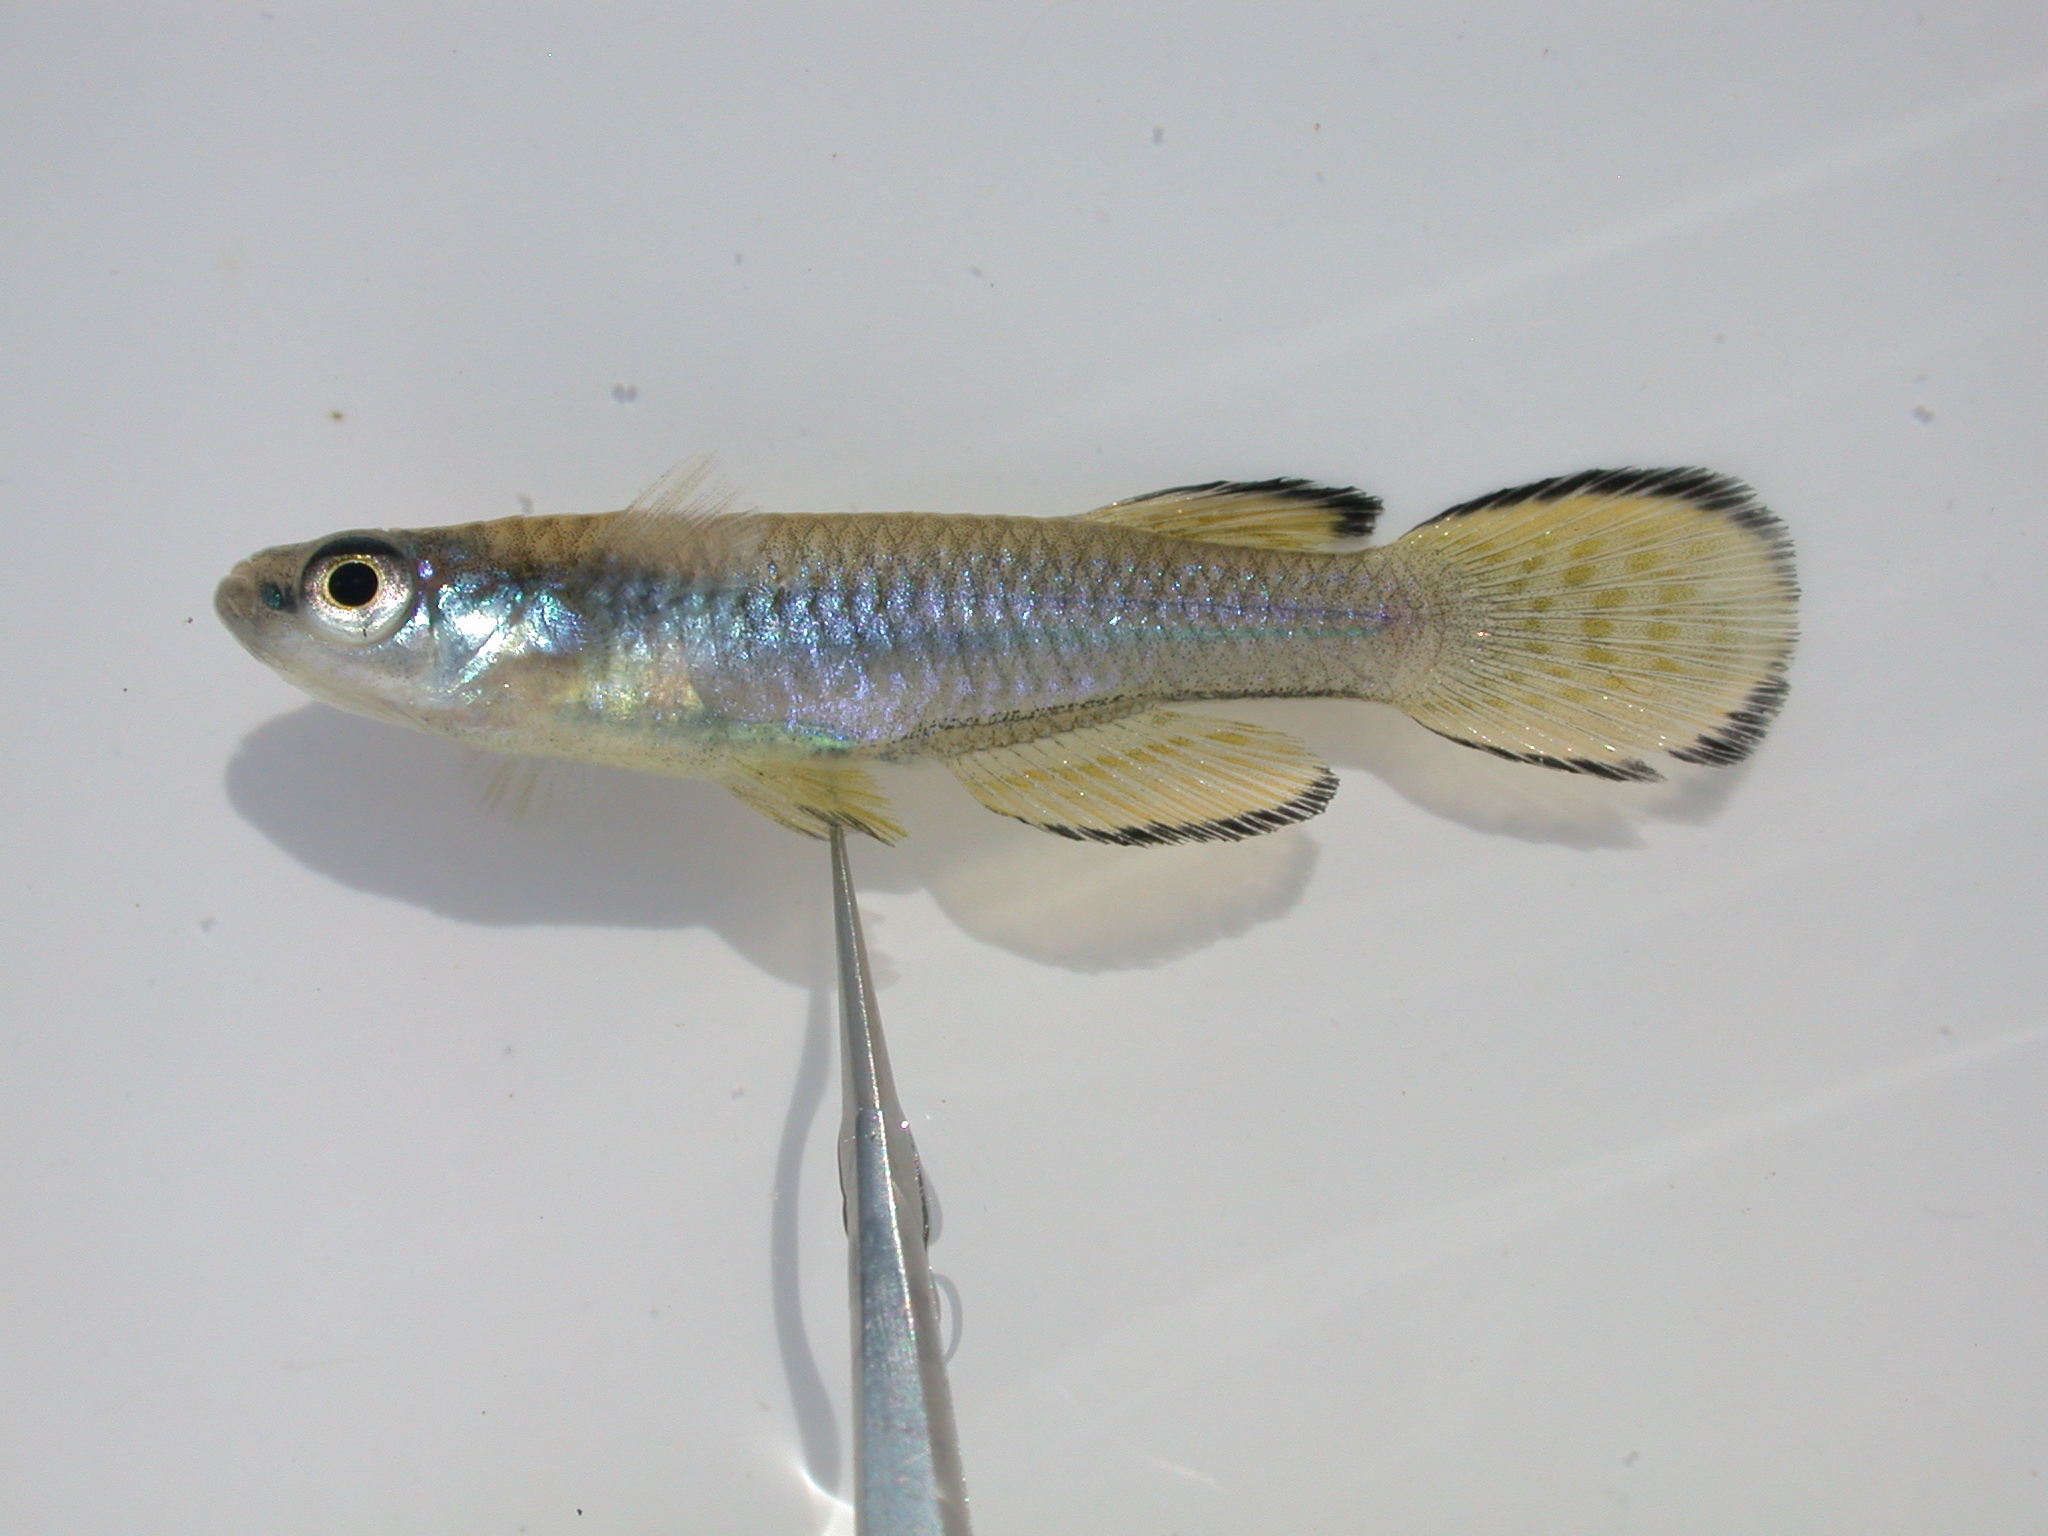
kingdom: Animalia
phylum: Chordata
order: Cyprinodontiformes
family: Poeciliidae
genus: Micropanchax
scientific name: Micropanchax johnstoni
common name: Johnston's topminnow
